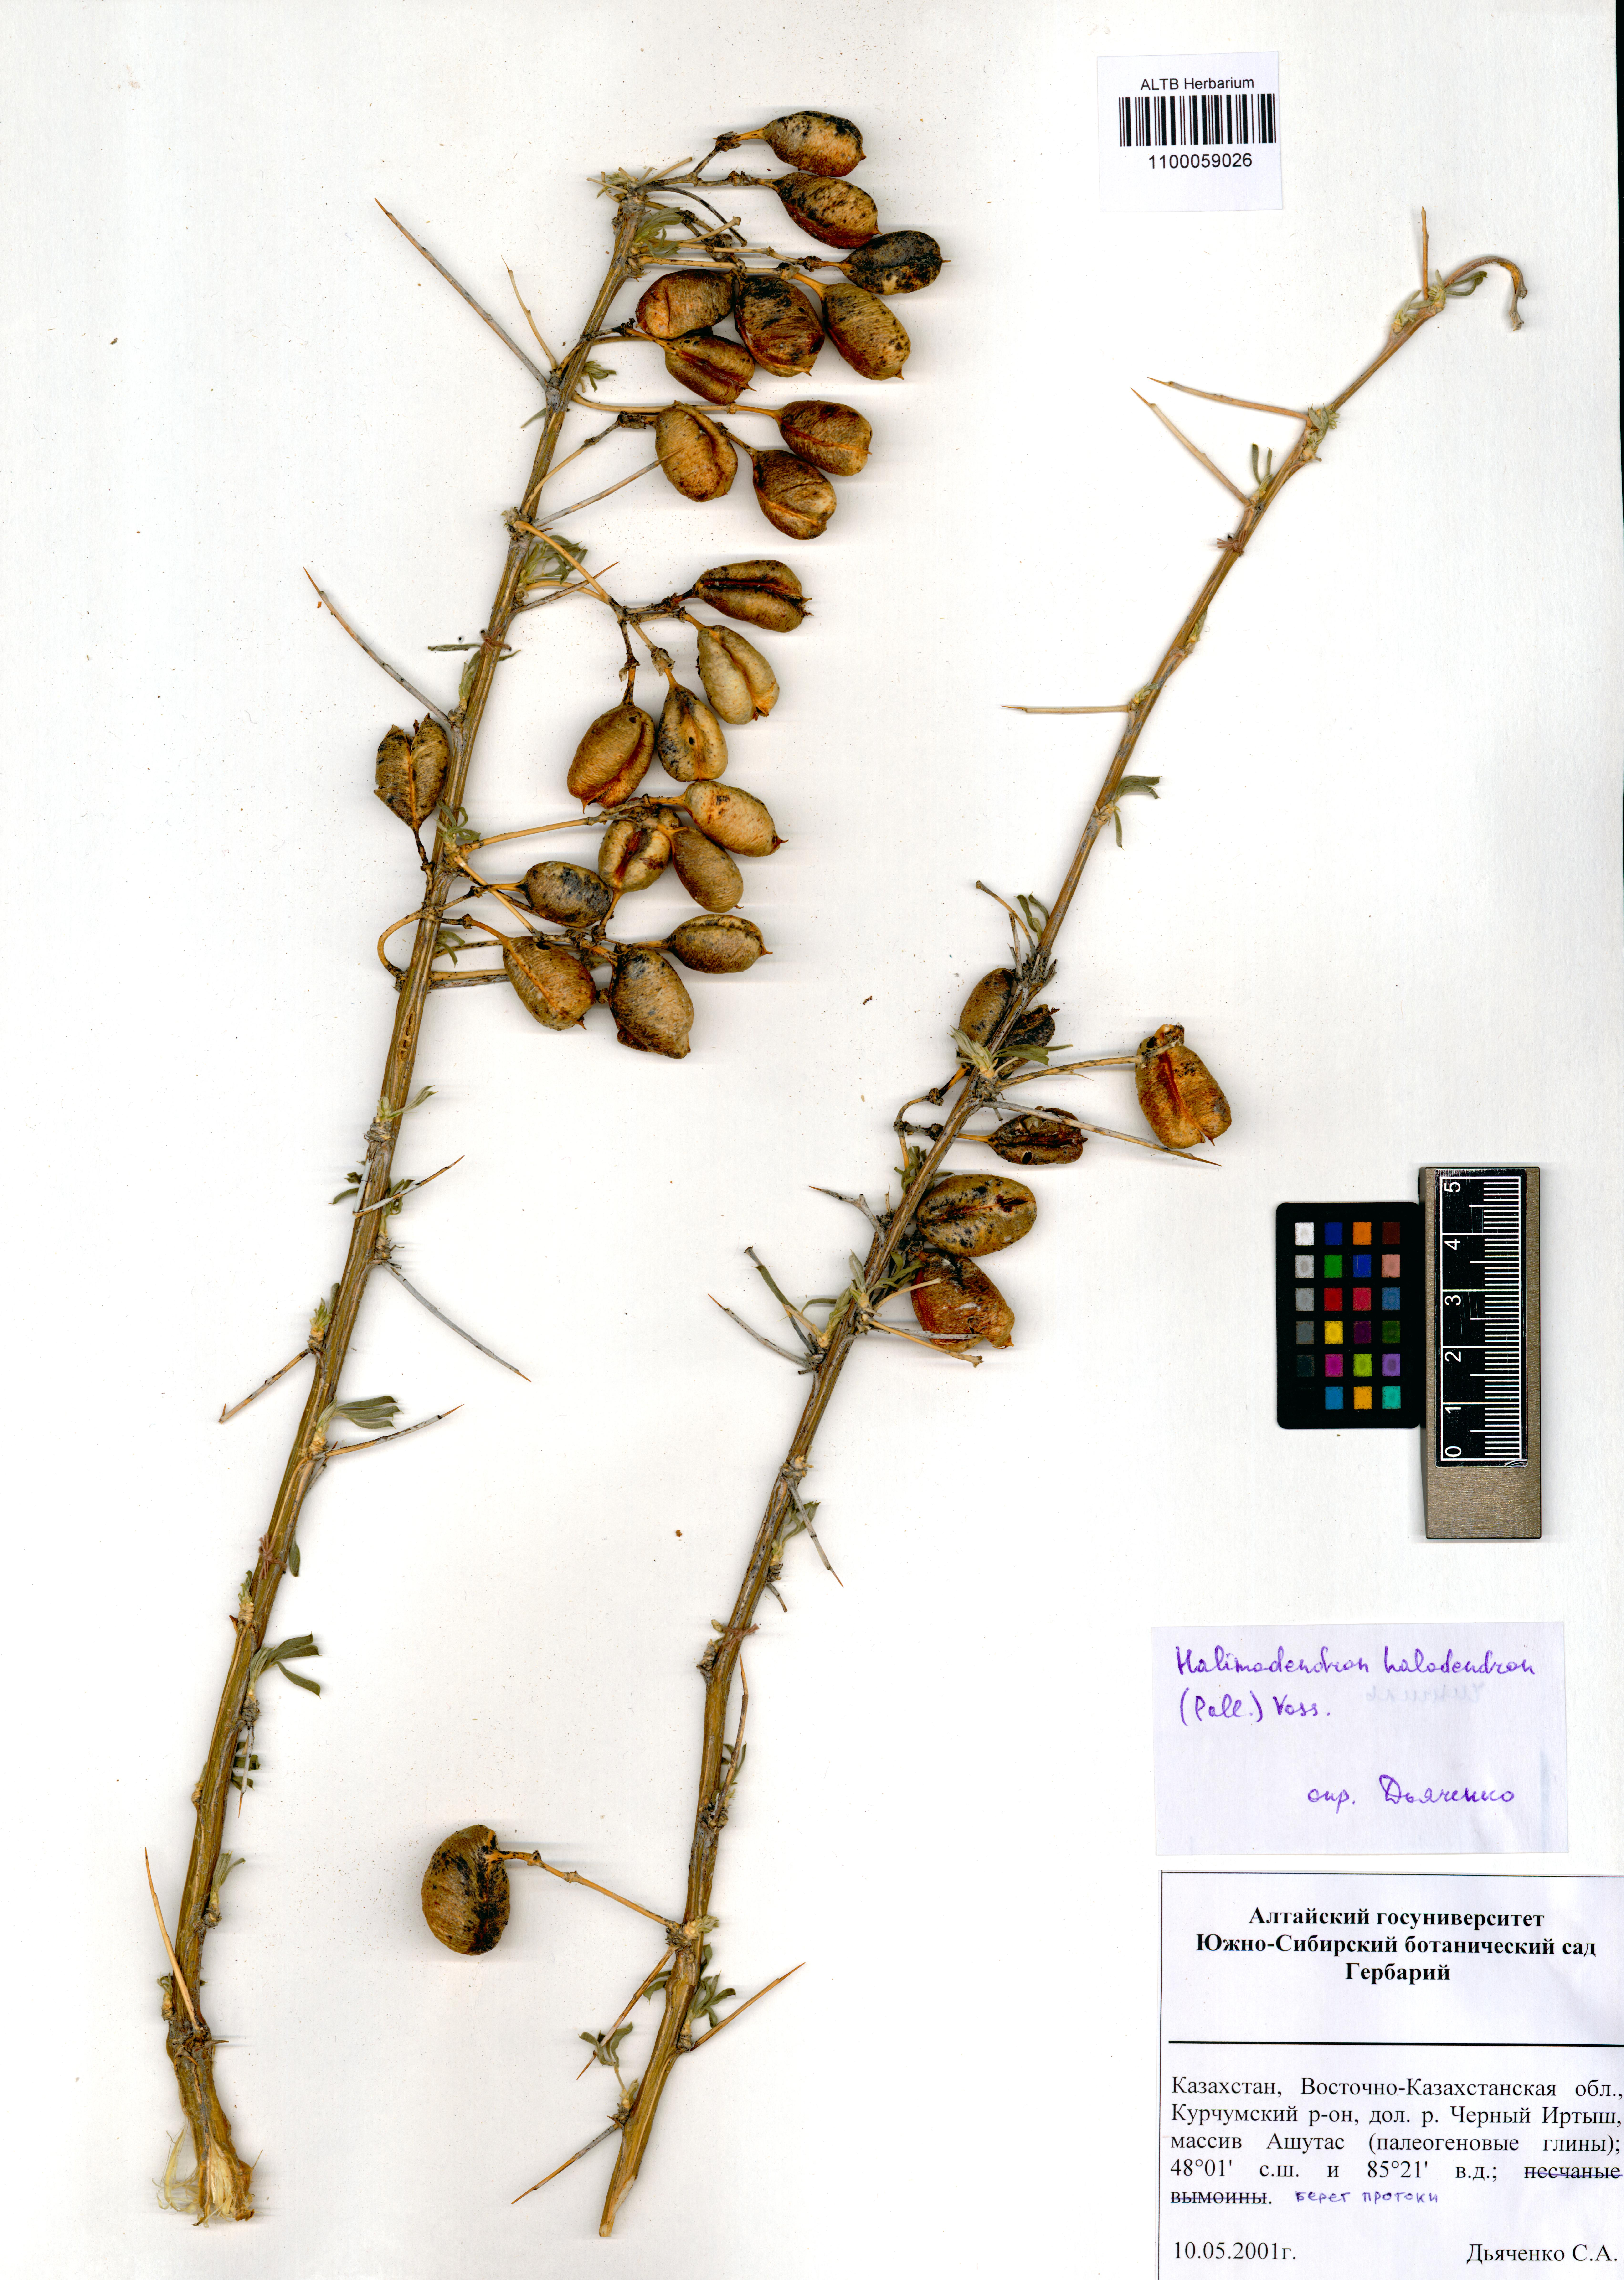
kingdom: Plantae
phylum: Tracheophyta
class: Magnoliopsida
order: Fabales
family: Fabaceae
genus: Caragana
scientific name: Caragana halodendron
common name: Siberian salt-tree
